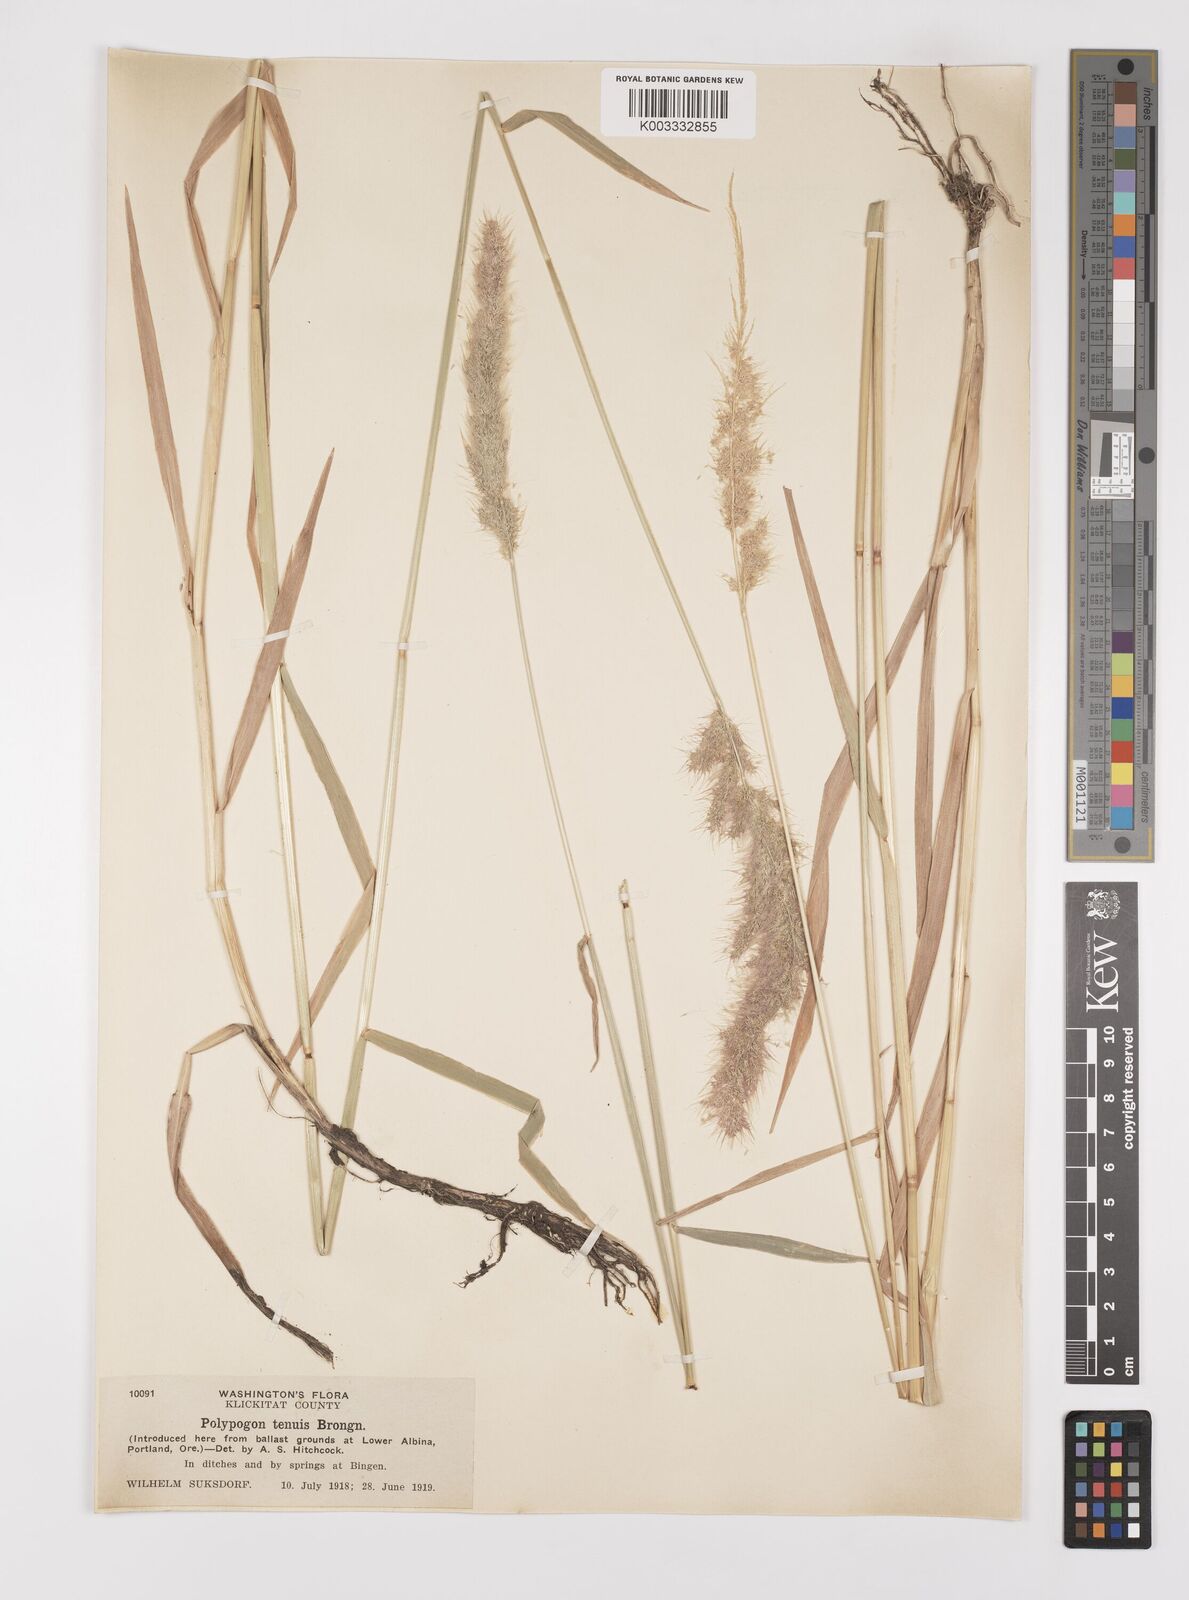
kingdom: Plantae
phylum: Tracheophyta
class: Liliopsida
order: Poales
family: Poaceae
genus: Polypogon
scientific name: Polypogon australis
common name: Chilean rabbitsfoot grass
